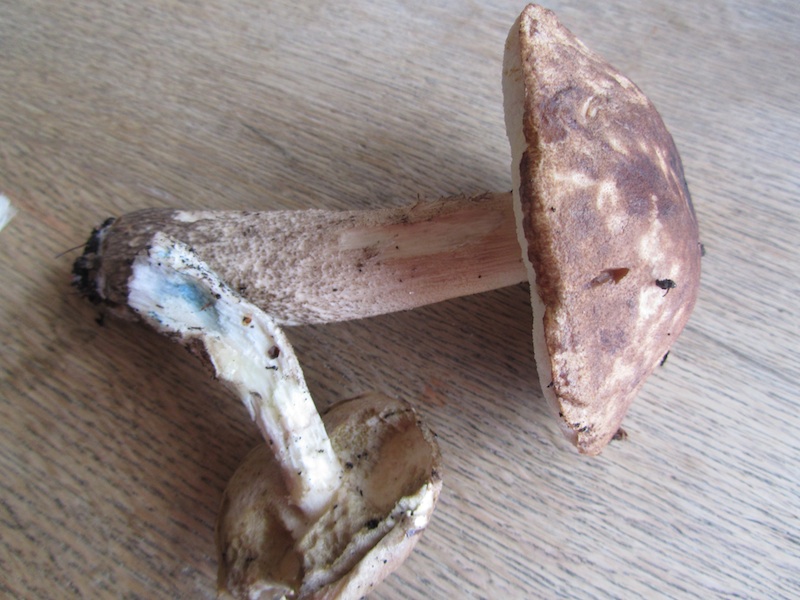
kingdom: Fungi
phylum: Basidiomycota
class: Agaricomycetes
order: Boletales
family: Boletaceae
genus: Leccinum
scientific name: Leccinum variicolor
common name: flammet skælrørhat
